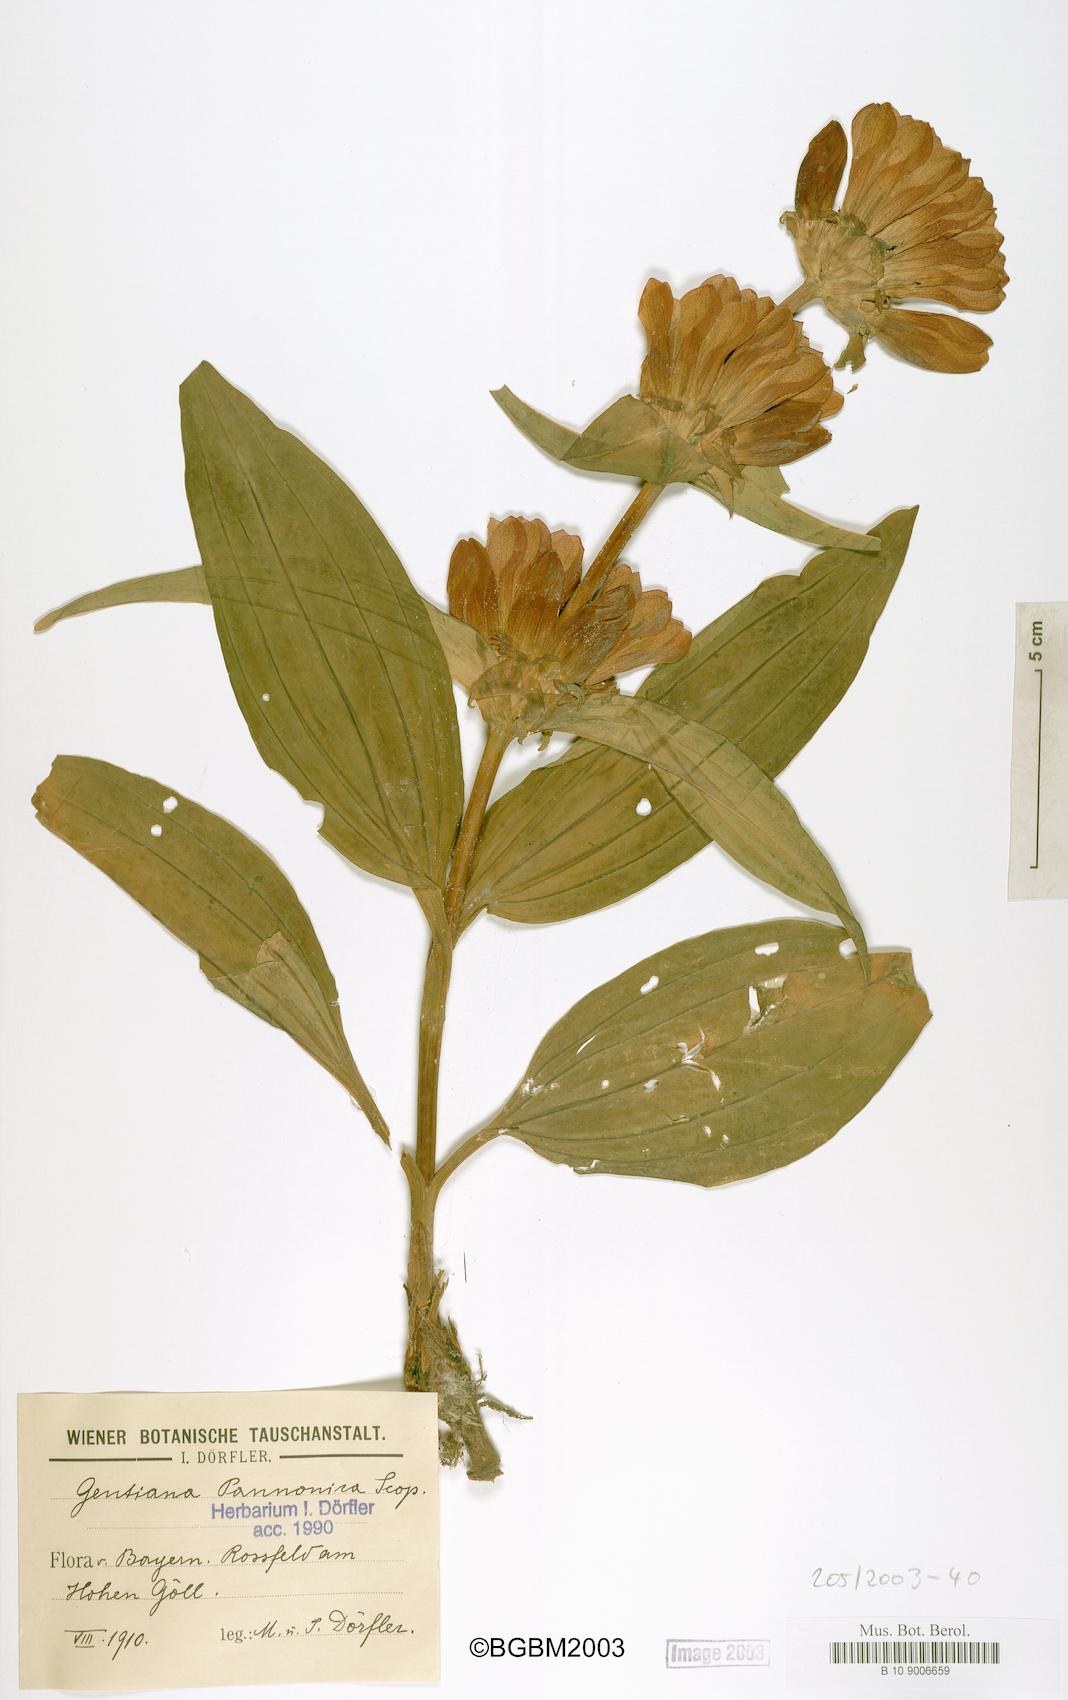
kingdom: Plantae
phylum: Tracheophyta
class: Magnoliopsida
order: Gentianales
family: Gentianaceae
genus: Gentiana
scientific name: Gentiana pannonica
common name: Hungarian gentian
